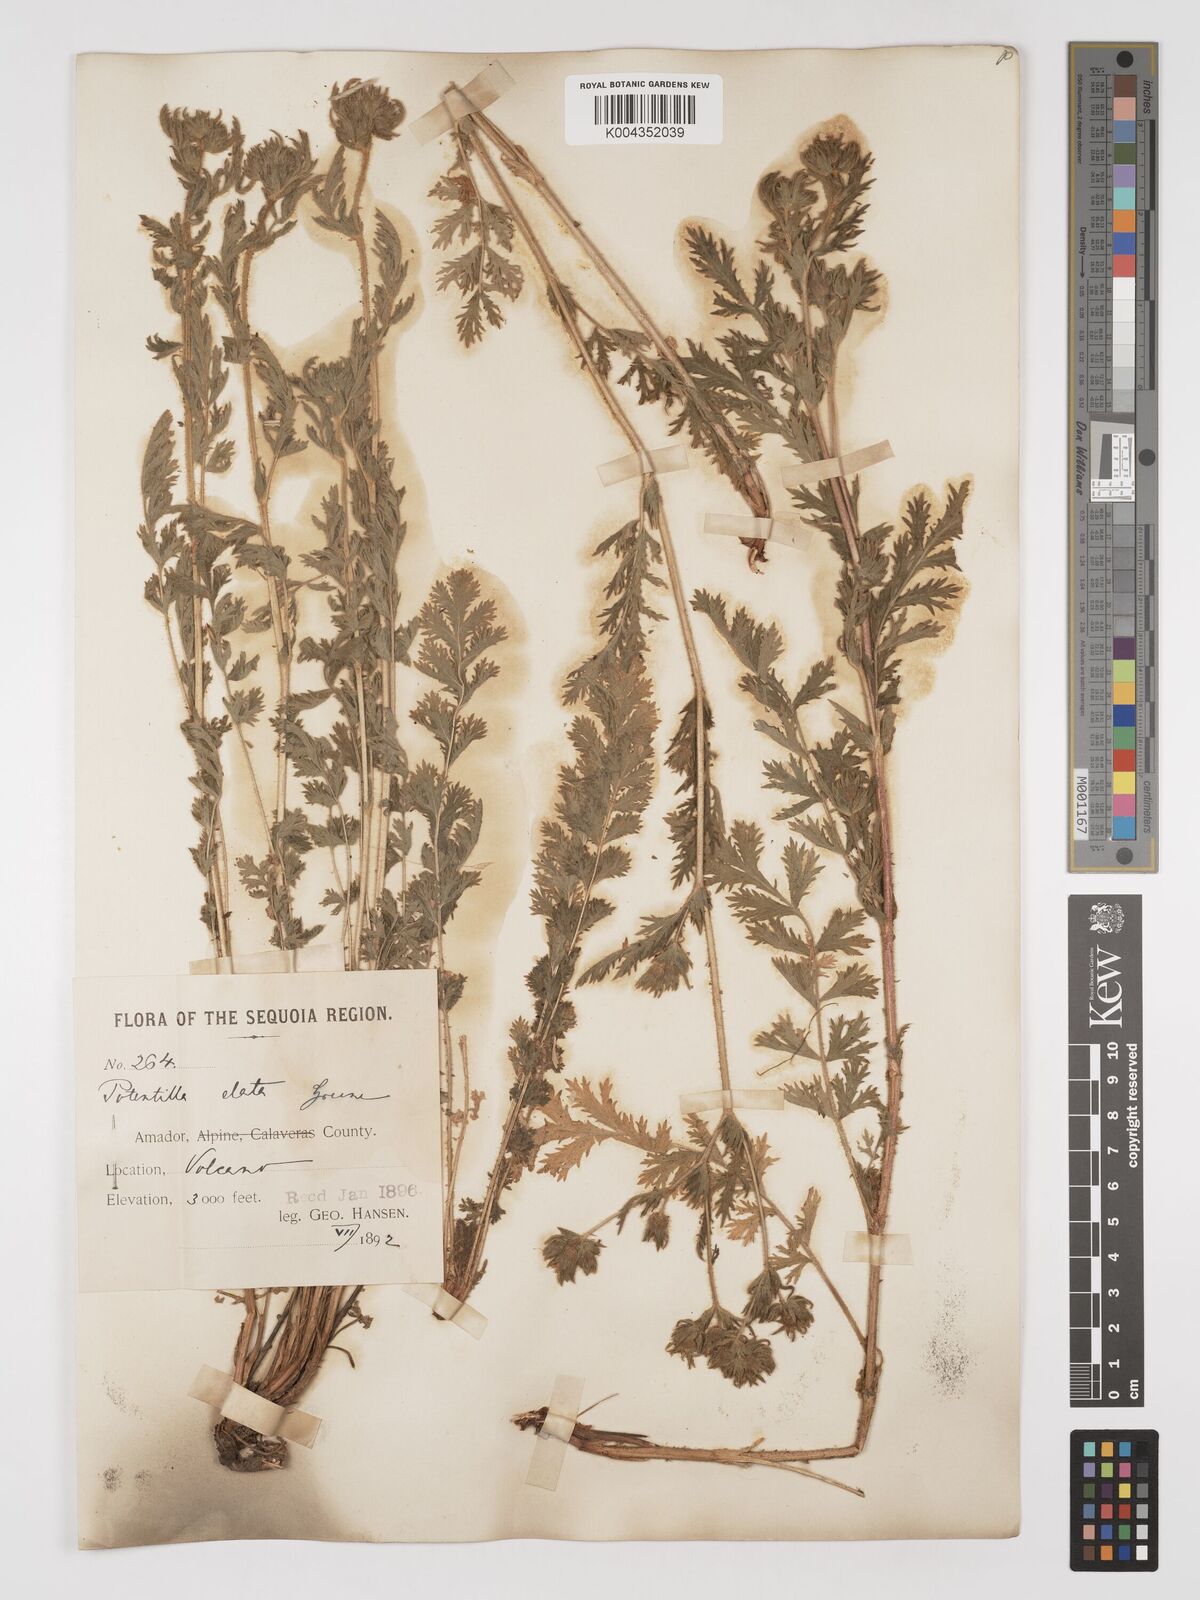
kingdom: Plantae
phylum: Tracheophyta
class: Magnoliopsida
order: Rosales
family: Rosaceae
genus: Potentilla
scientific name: Potentilla californica
